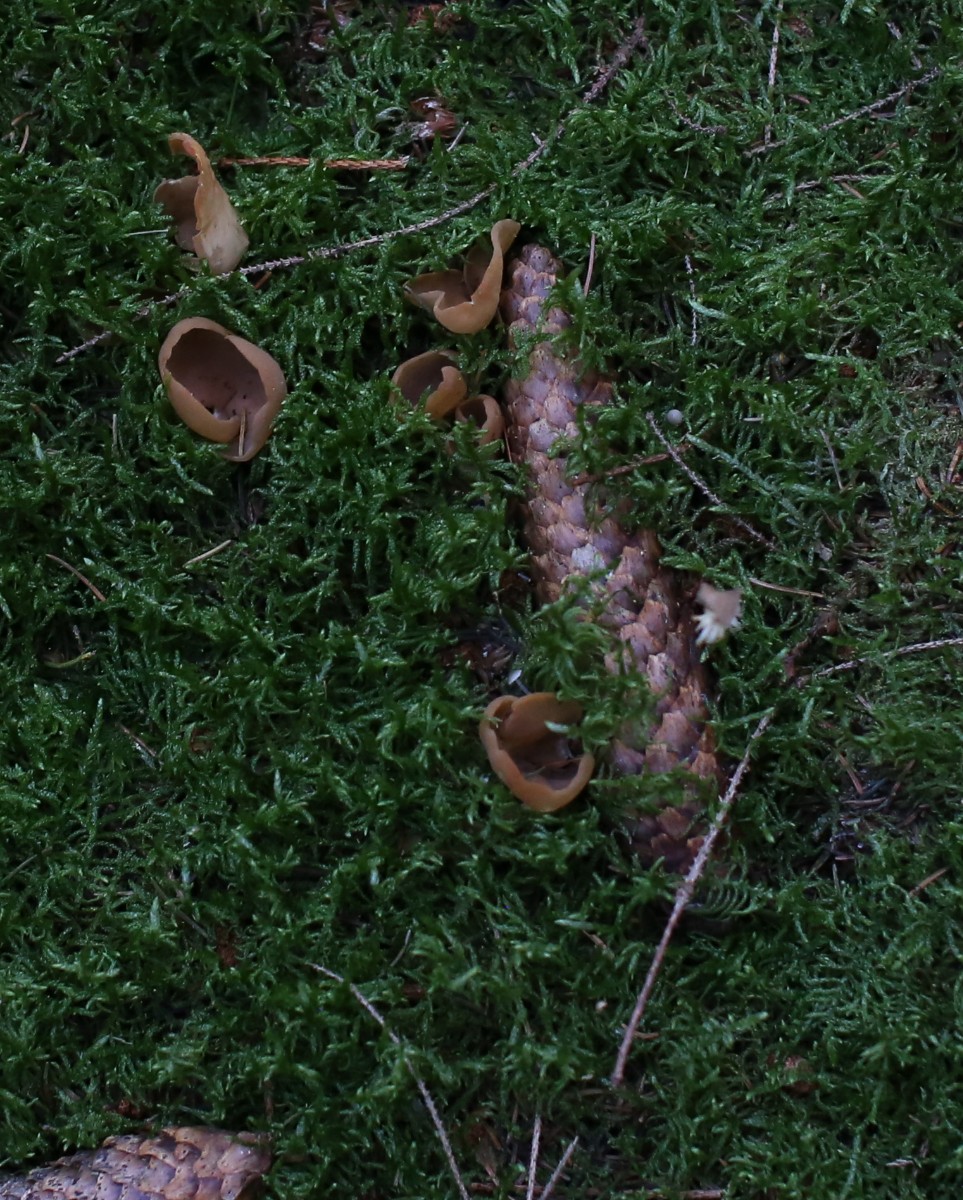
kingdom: Fungi
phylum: Ascomycota
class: Pezizomycetes
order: Pezizales
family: Otideaceae
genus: Otidea
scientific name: Otidea
